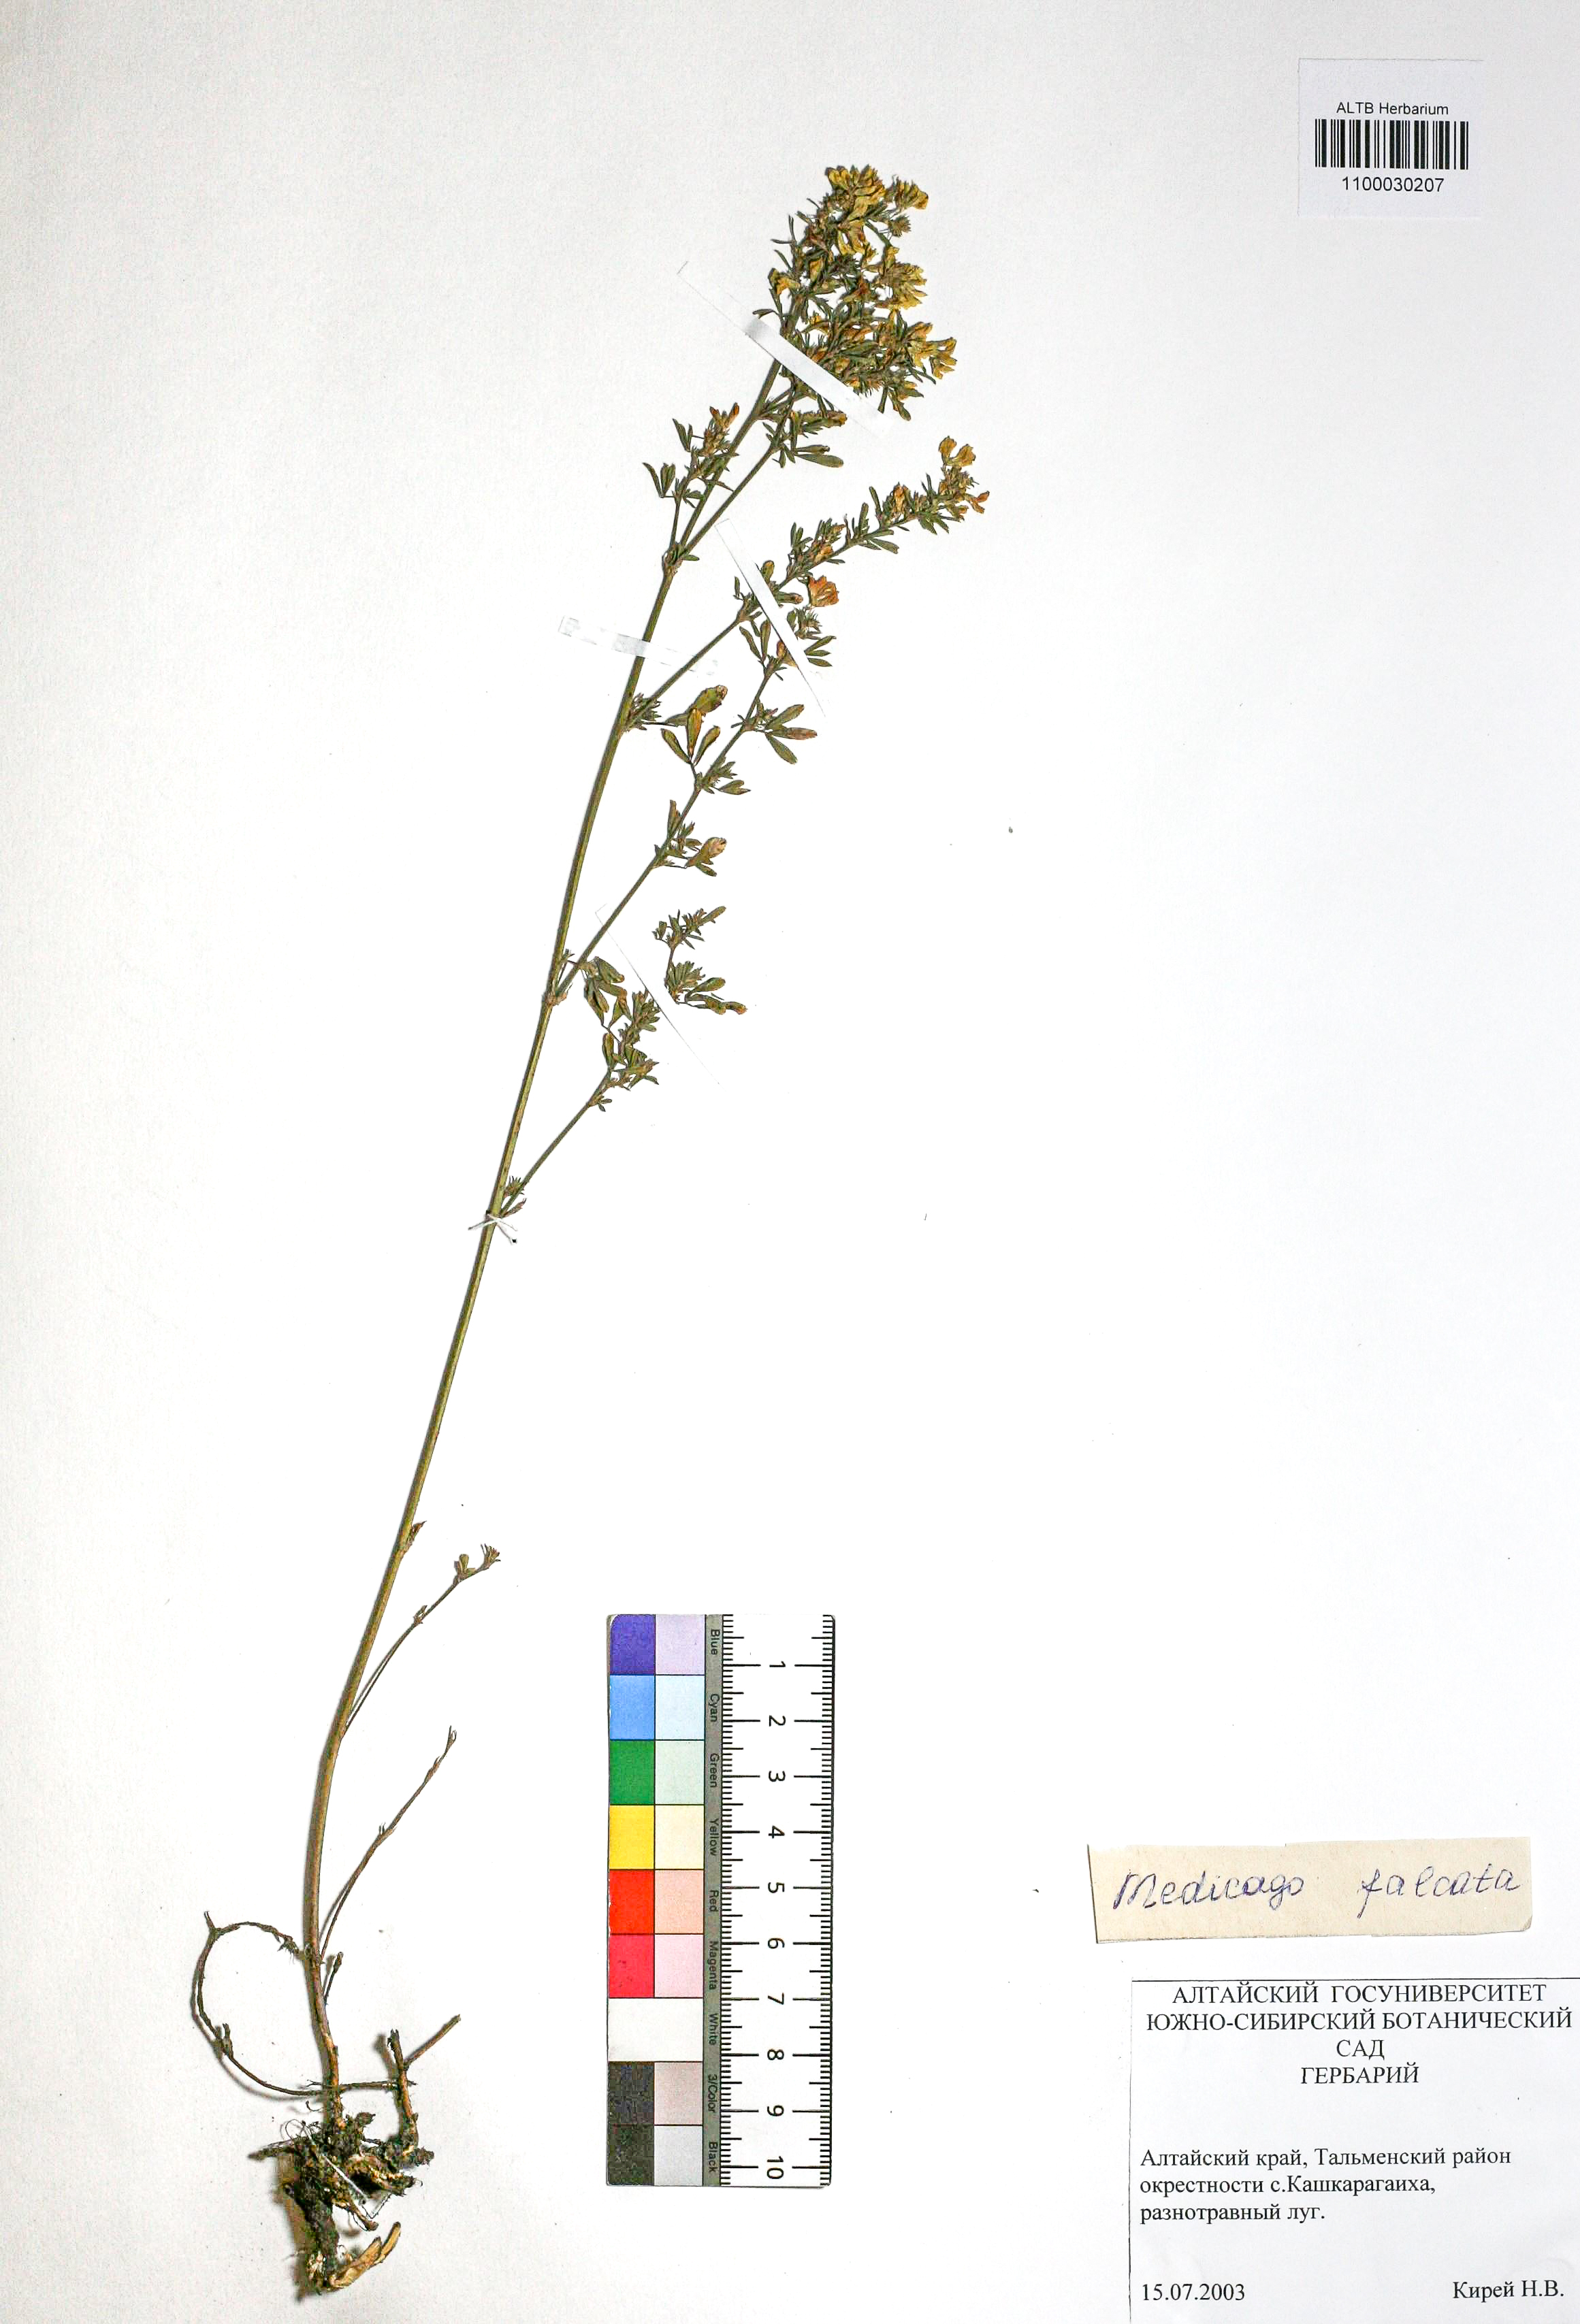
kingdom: Plantae
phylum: Tracheophyta
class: Magnoliopsida
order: Fabales
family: Fabaceae
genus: Medicago
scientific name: Medicago falcata
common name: Sickle medick
